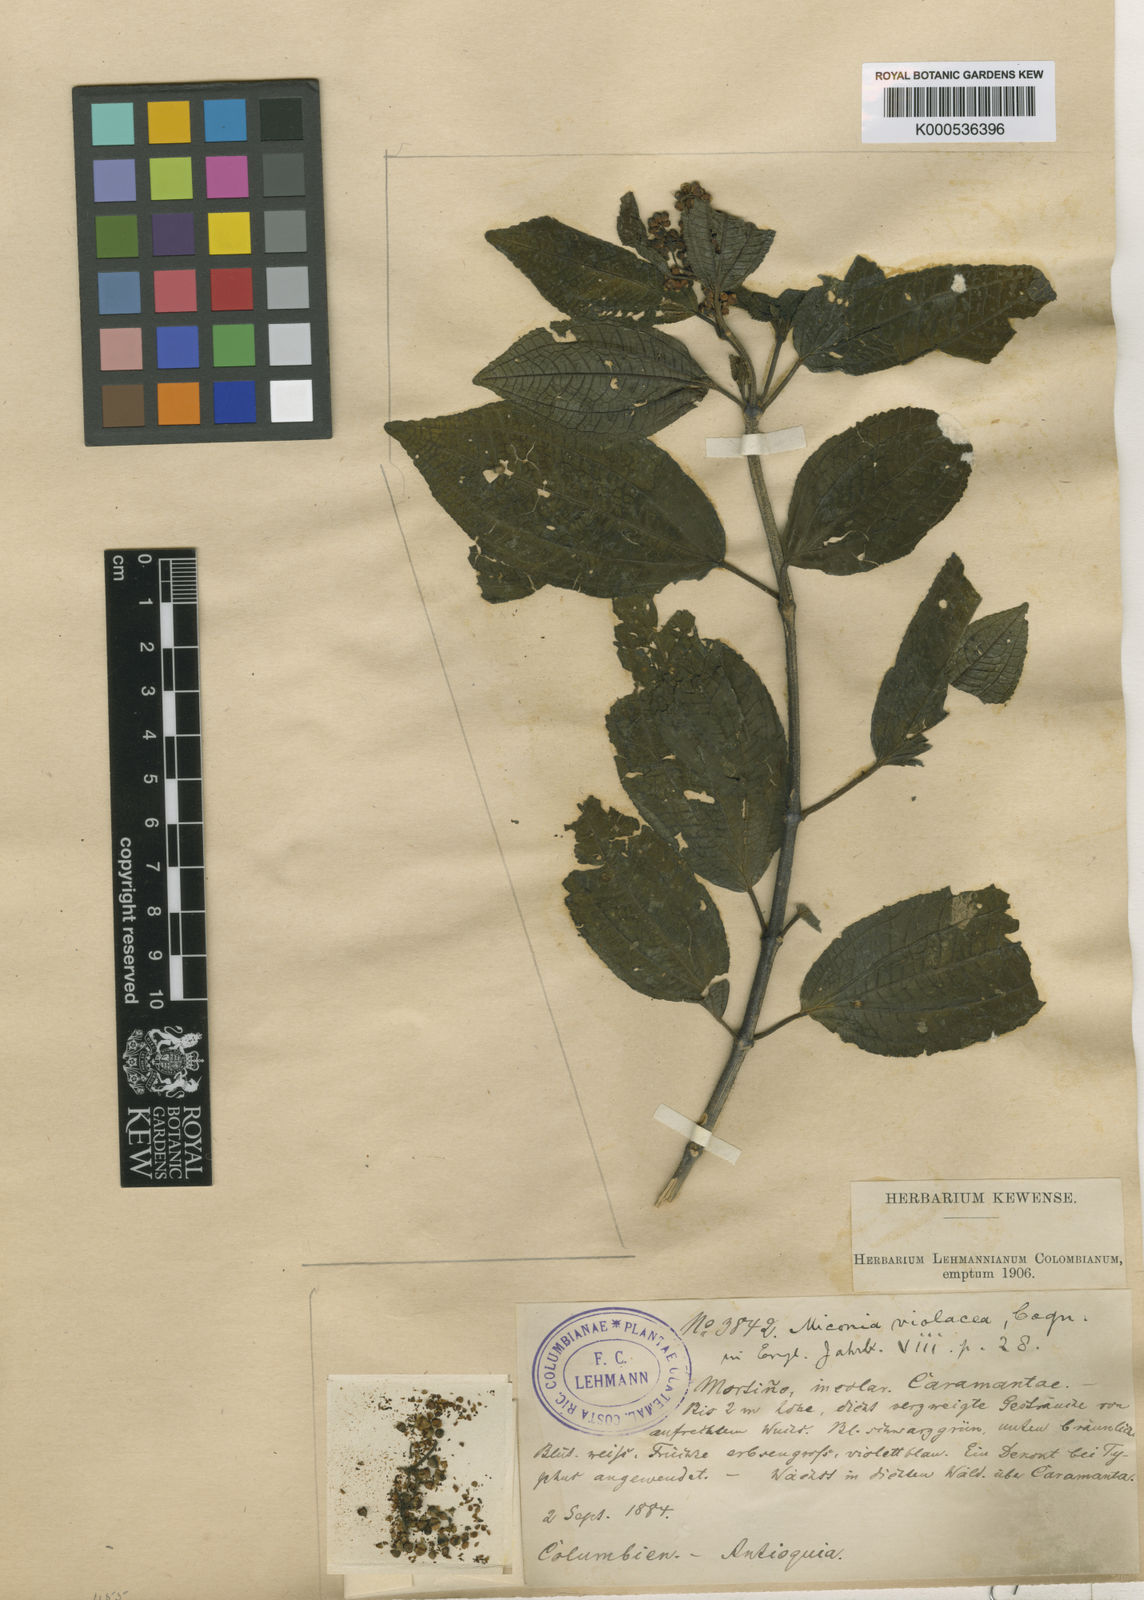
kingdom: Plantae
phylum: Tracheophyta
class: Magnoliopsida
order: Myrtales
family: Melastomataceae
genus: Miconia
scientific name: Miconia violacea
